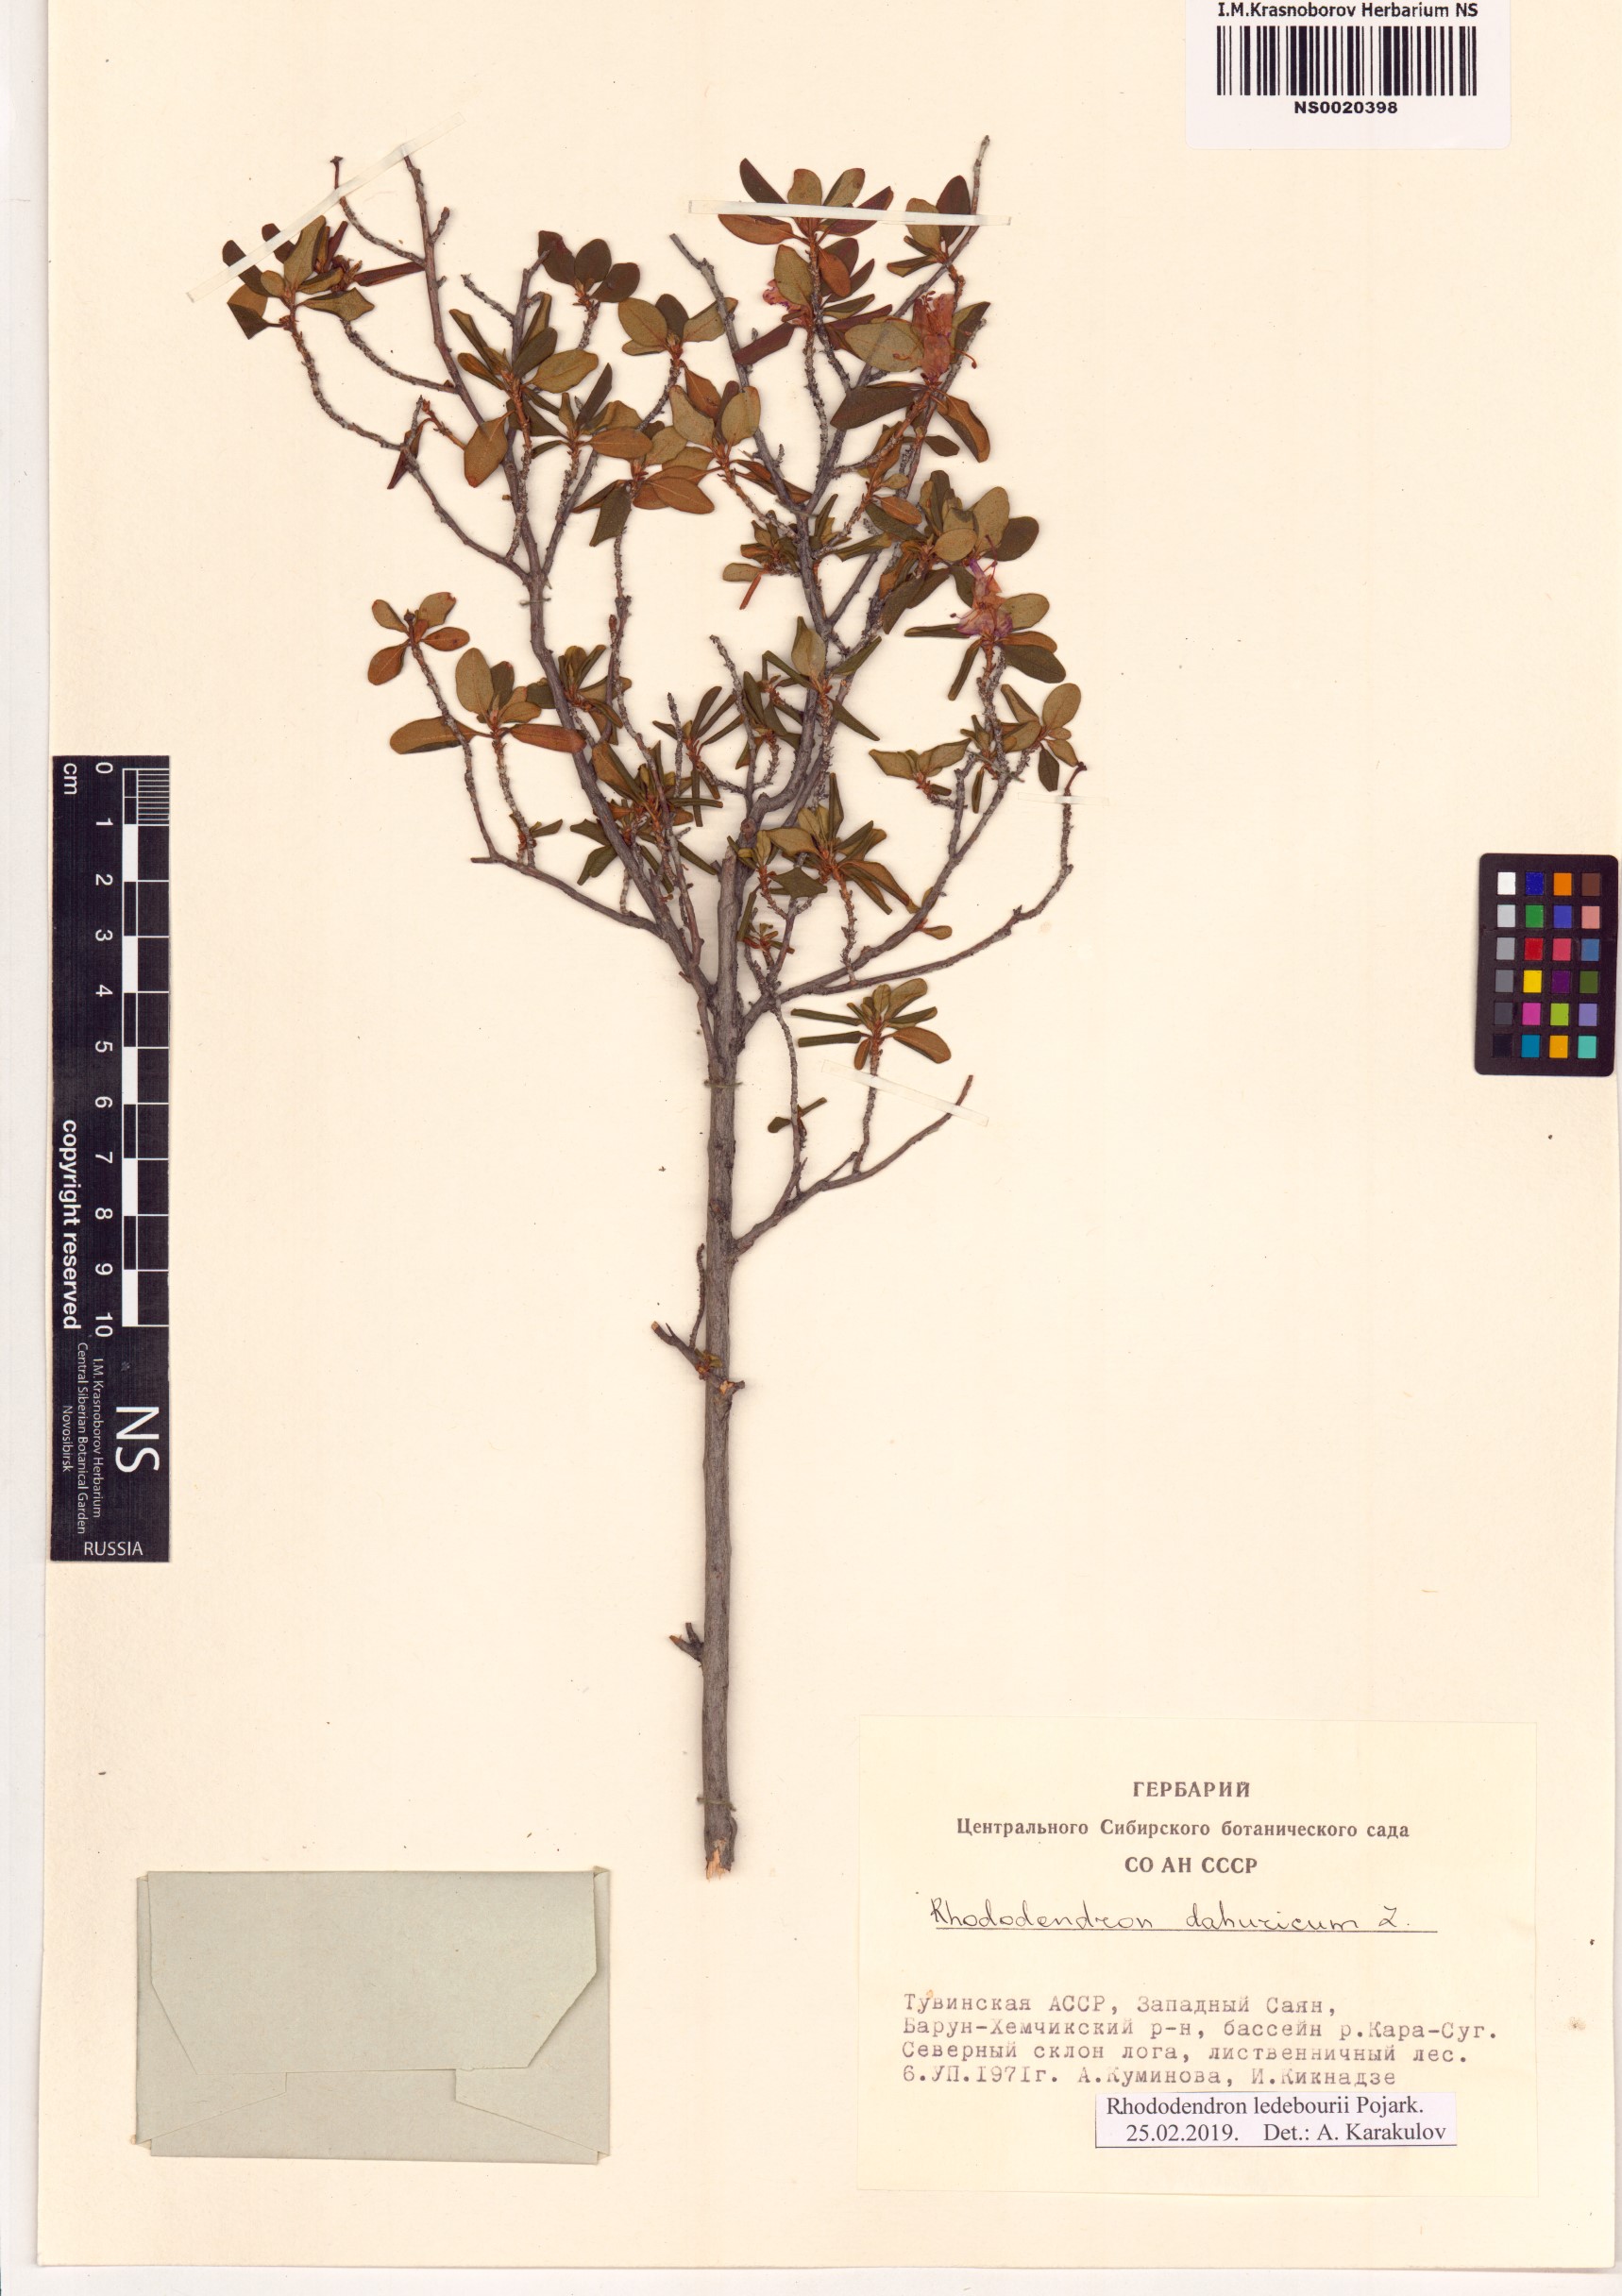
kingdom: Plantae
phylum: Tracheophyta
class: Magnoliopsida
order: Ericales
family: Ericaceae
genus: Rhododendron
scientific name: Rhododendron dauricum
